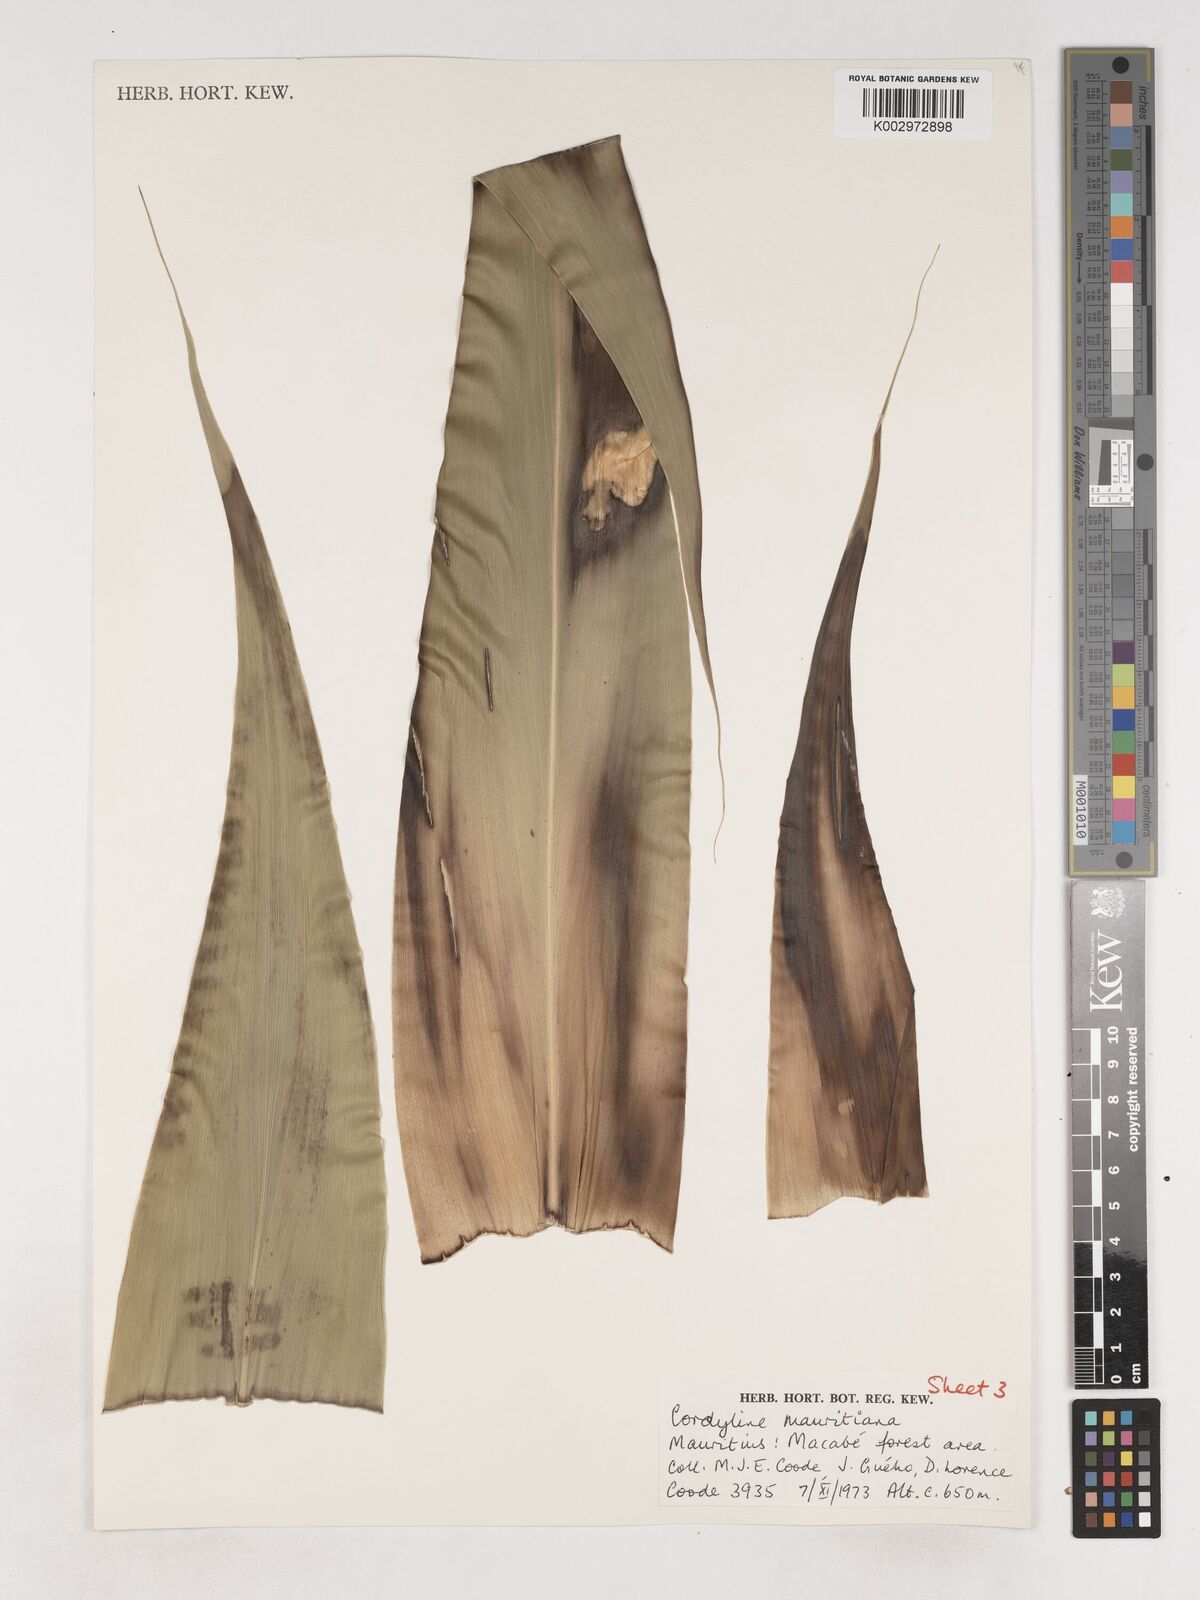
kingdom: Plantae
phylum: Tracheophyta
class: Liliopsida
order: Asparagales
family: Asparagaceae
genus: Cordyline
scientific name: Cordyline mauritiana
